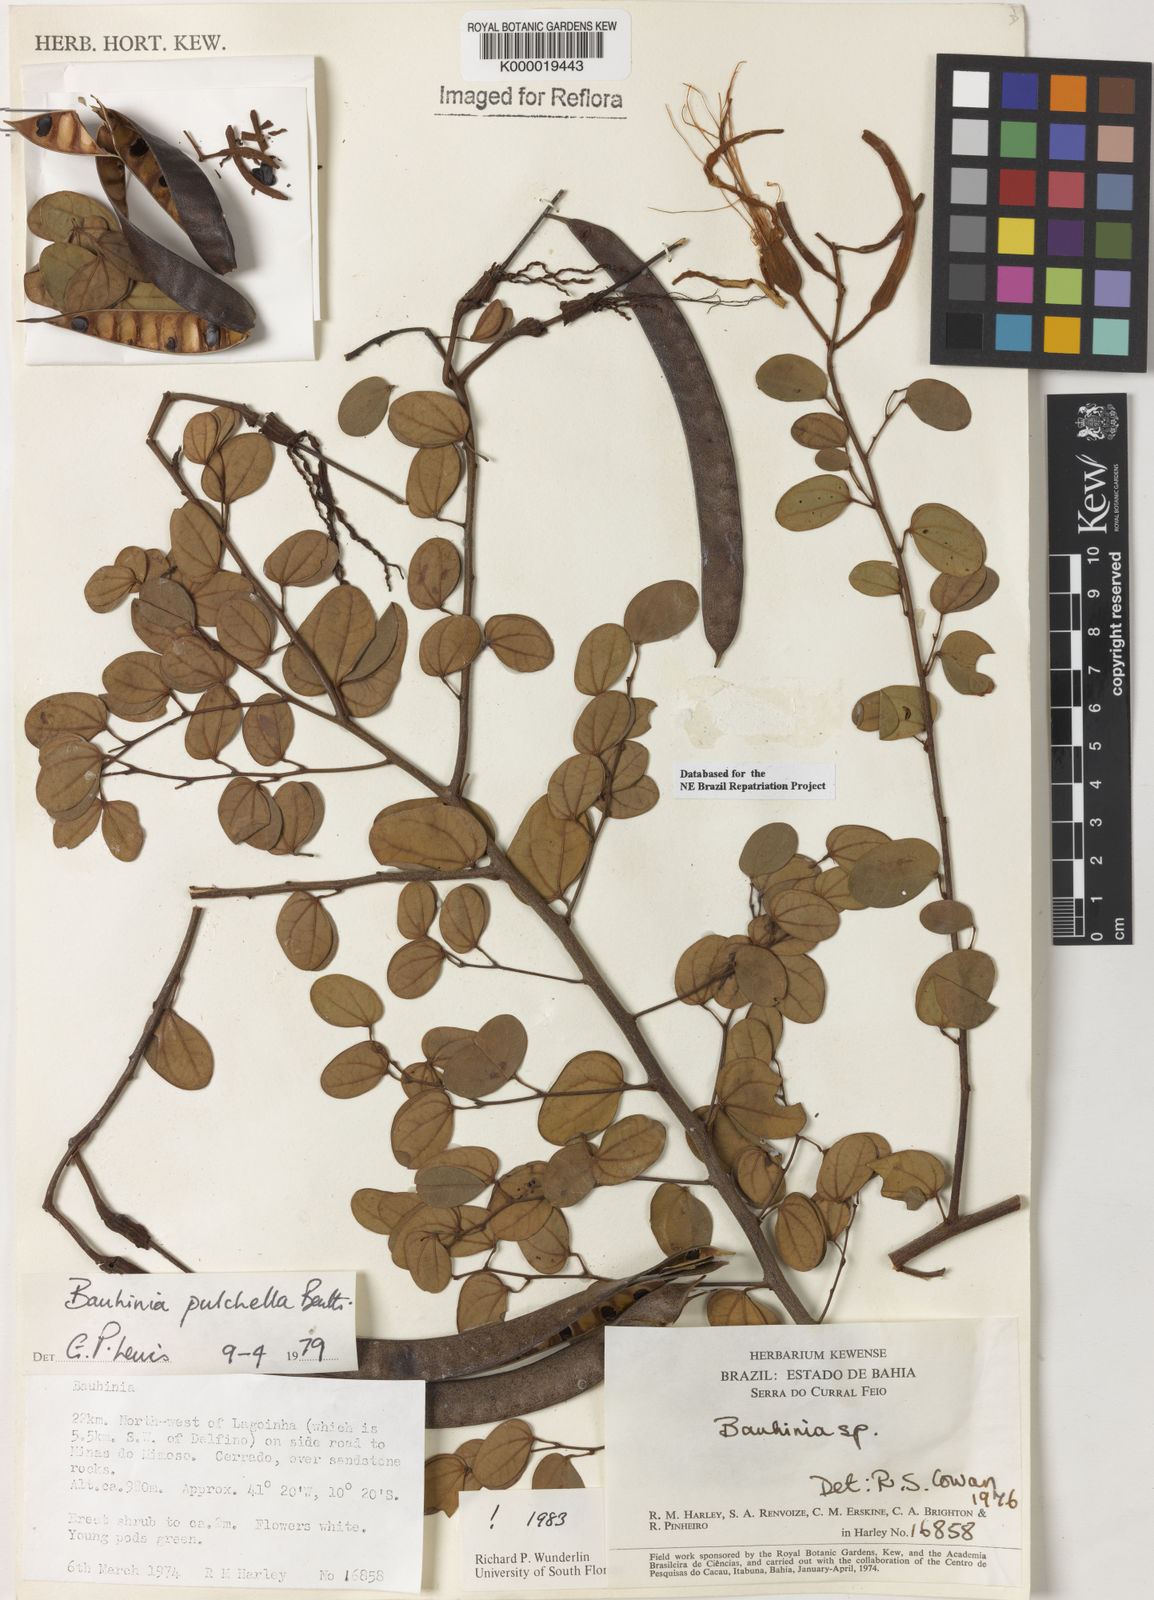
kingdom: Plantae
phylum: Tracheophyta
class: Magnoliopsida
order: Fabales
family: Fabaceae
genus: Bauhinia
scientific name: Bauhinia pulchella
